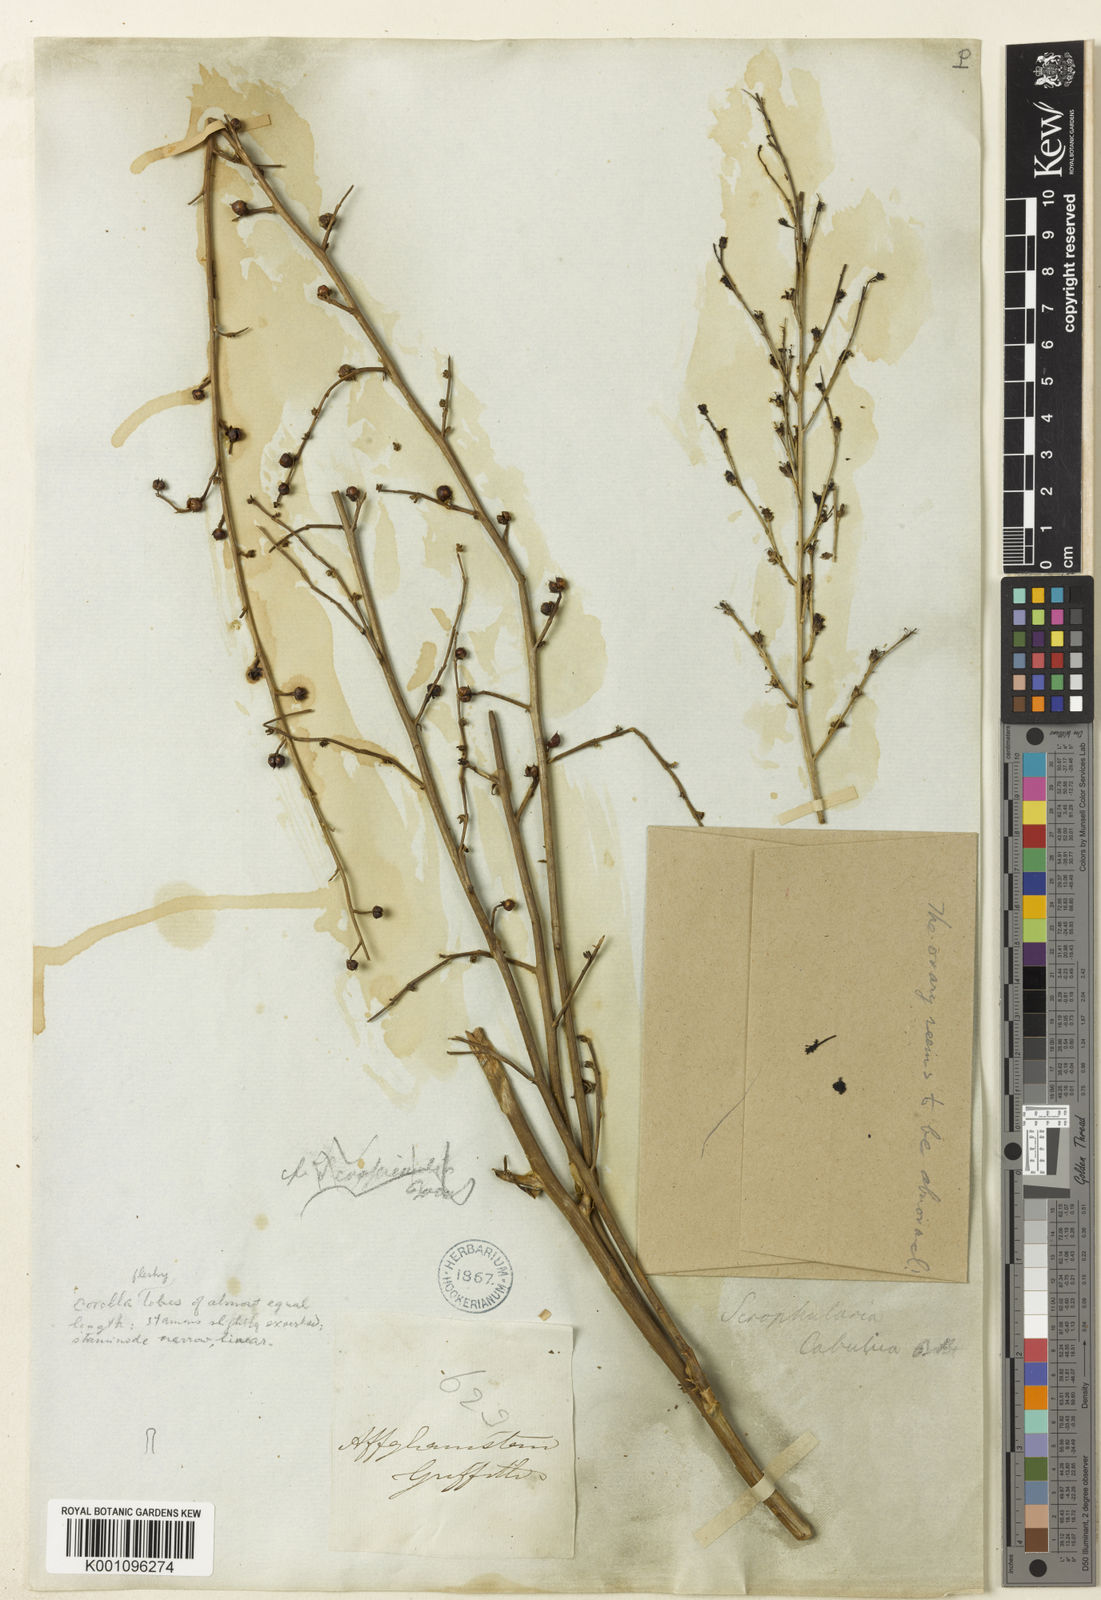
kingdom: Plantae
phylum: Tracheophyta
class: Magnoliopsida
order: Lamiales
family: Scrophulariaceae
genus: Scrophularia
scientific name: Scrophularia cabulica
